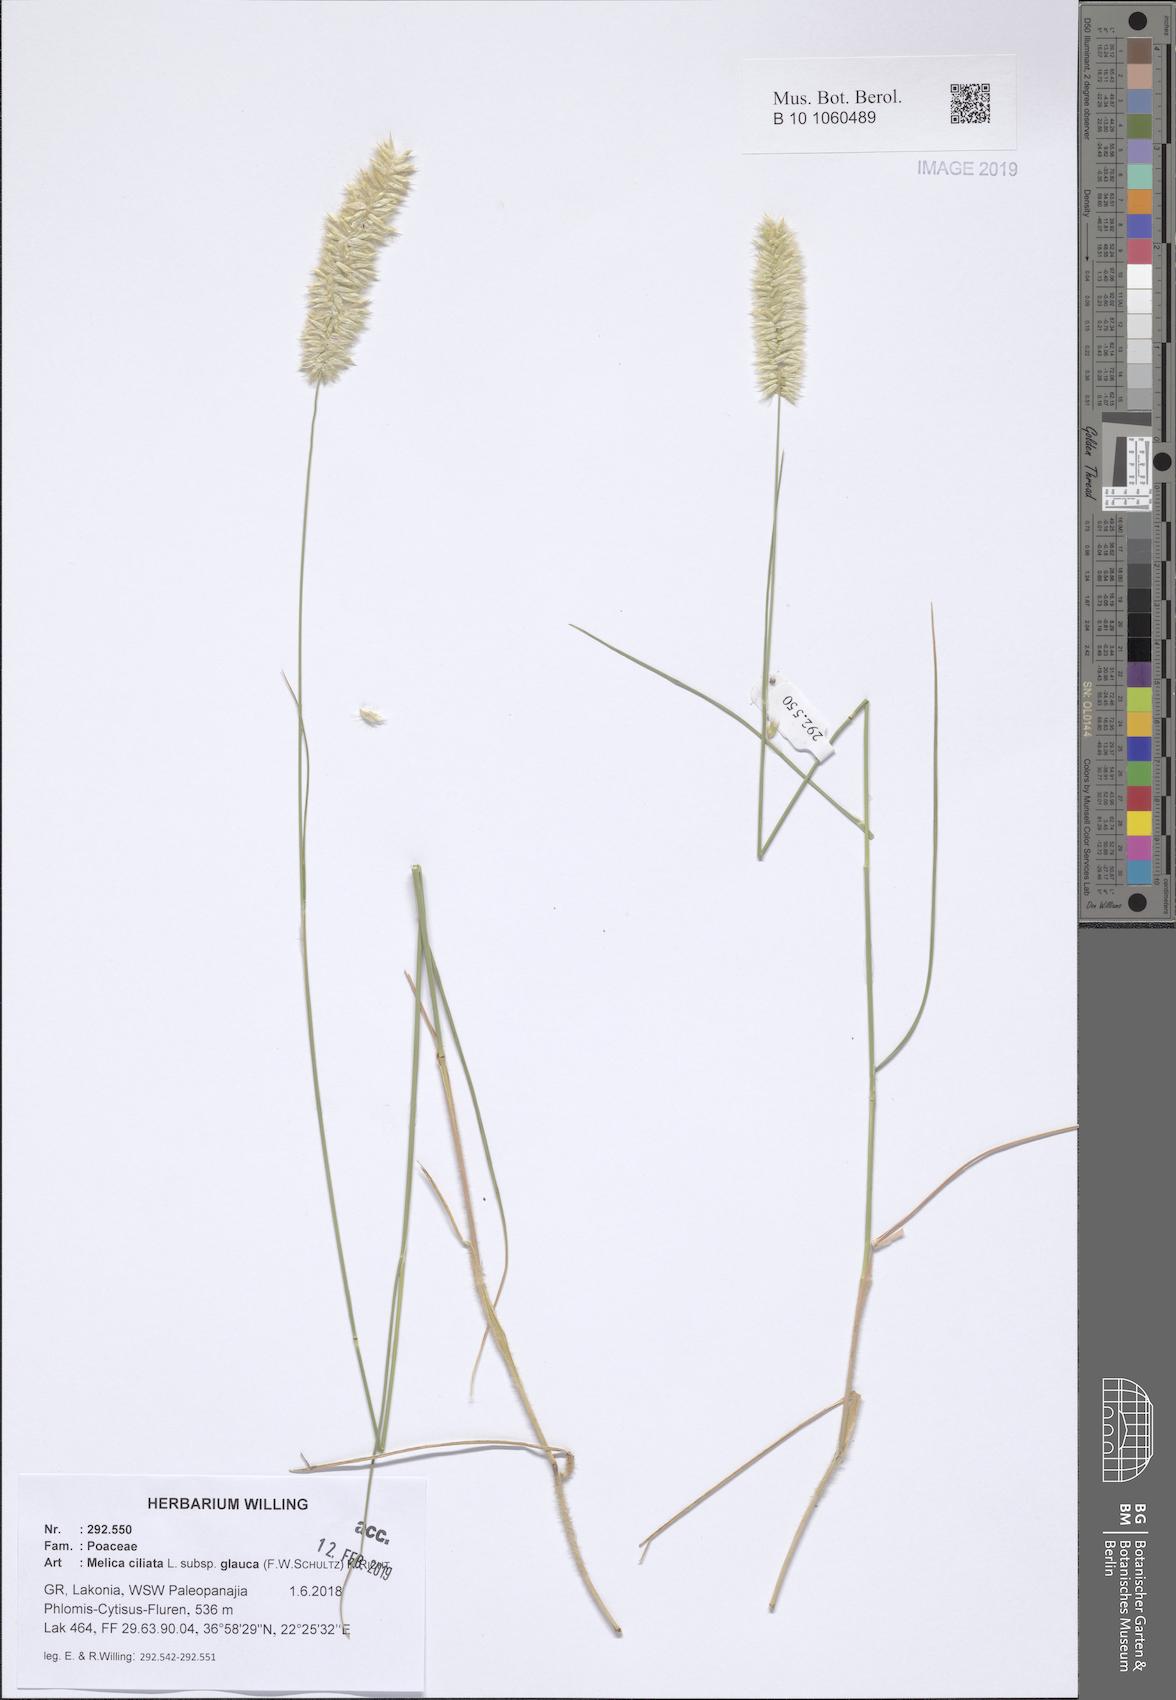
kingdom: Plantae
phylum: Tracheophyta
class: Liliopsida
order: Poales
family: Poaceae
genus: Melica
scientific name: Melica ciliata
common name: Hairy melicgrass
